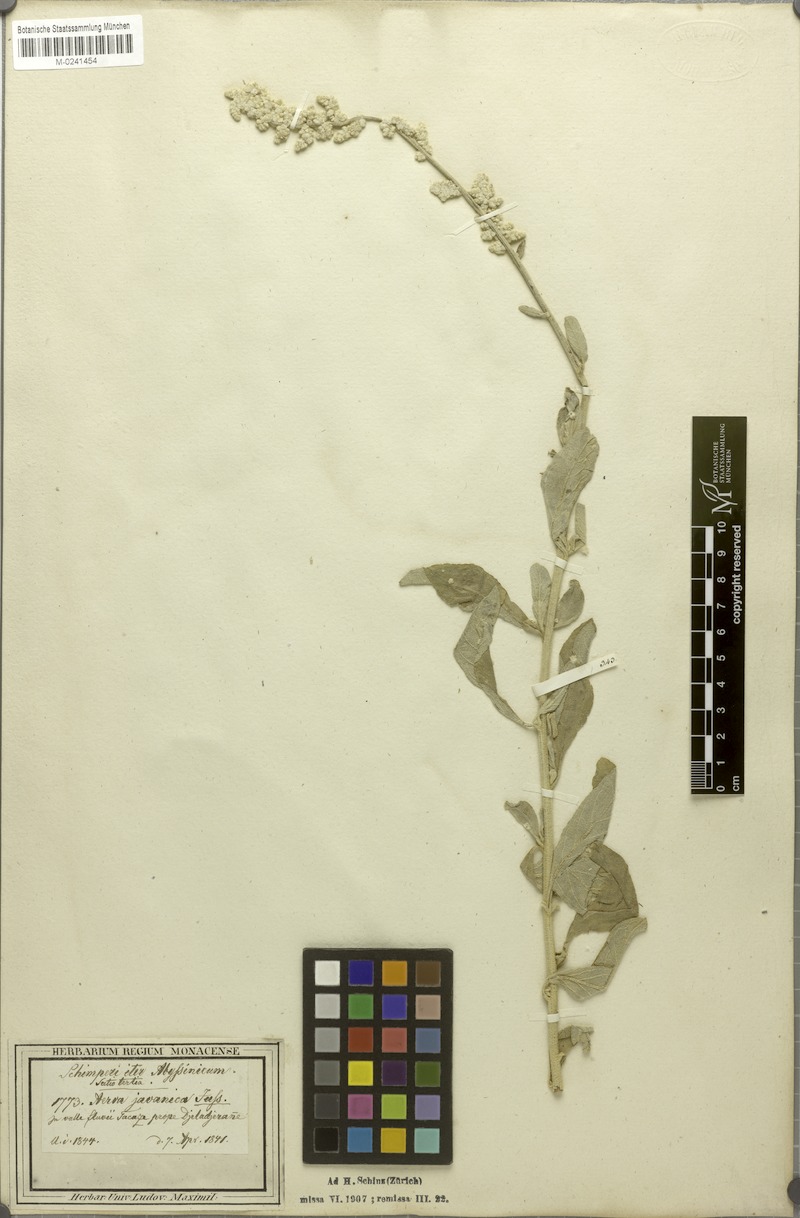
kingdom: Plantae
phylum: Tracheophyta
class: Magnoliopsida
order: Caryophyllales
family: Amaranthaceae
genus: Aerva
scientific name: Aerva javanica
